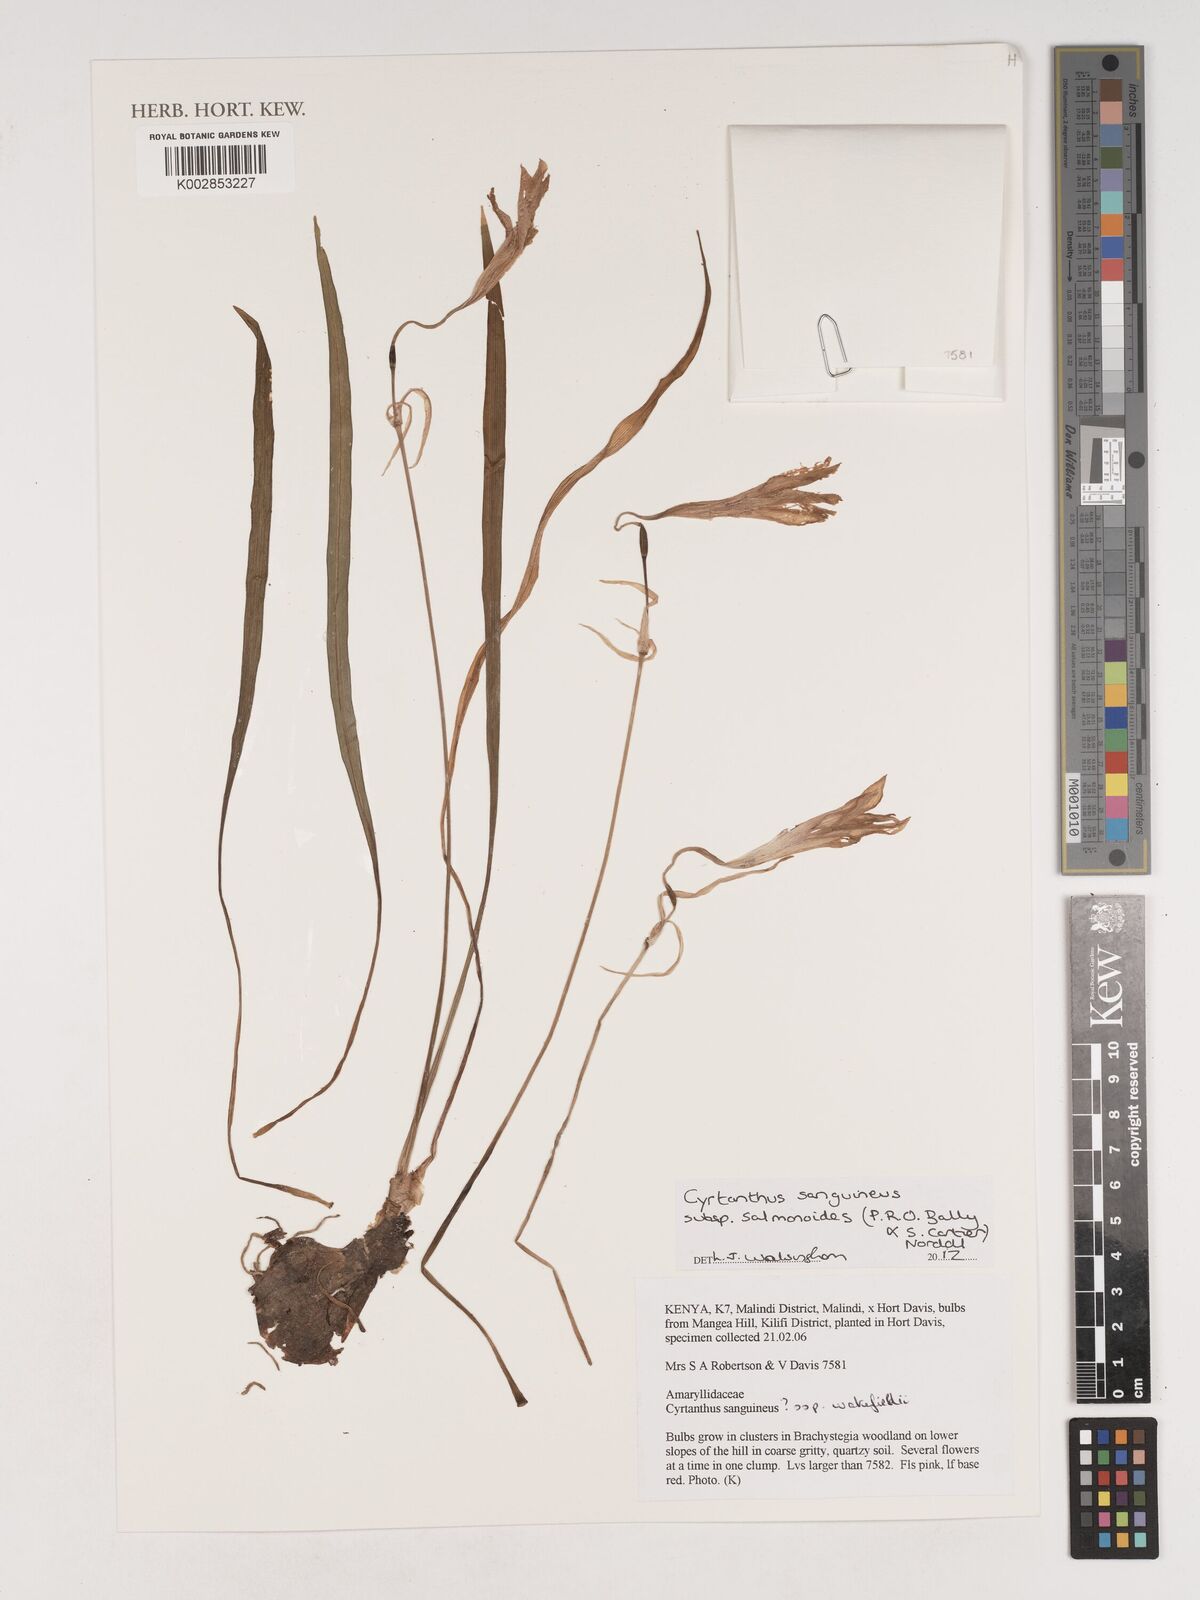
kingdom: Plantae
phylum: Tracheophyta
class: Liliopsida
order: Asparagales
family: Amaryllidaceae
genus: Cyrtanthus
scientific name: Cyrtanthus sanguineus
